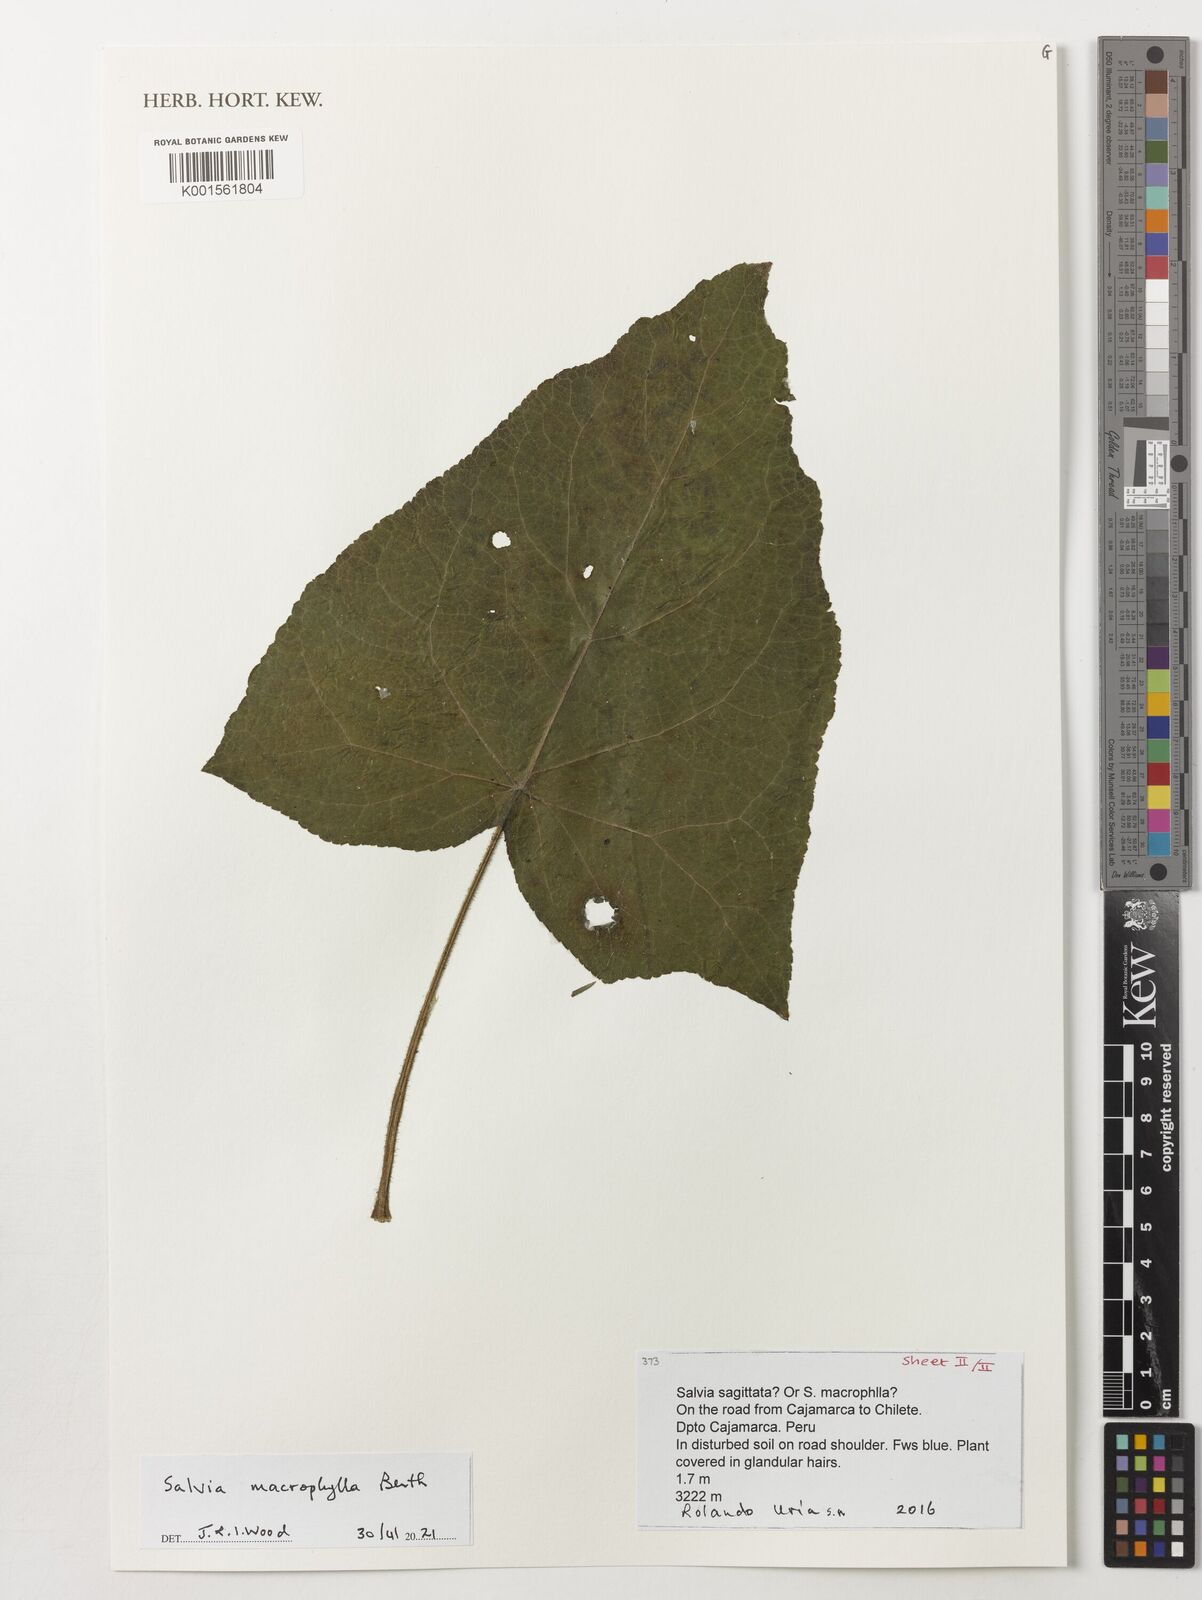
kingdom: Plantae
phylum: Tracheophyta
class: Magnoliopsida
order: Lamiales
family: Lamiaceae
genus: Salvia
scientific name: Salvia macrophylla
